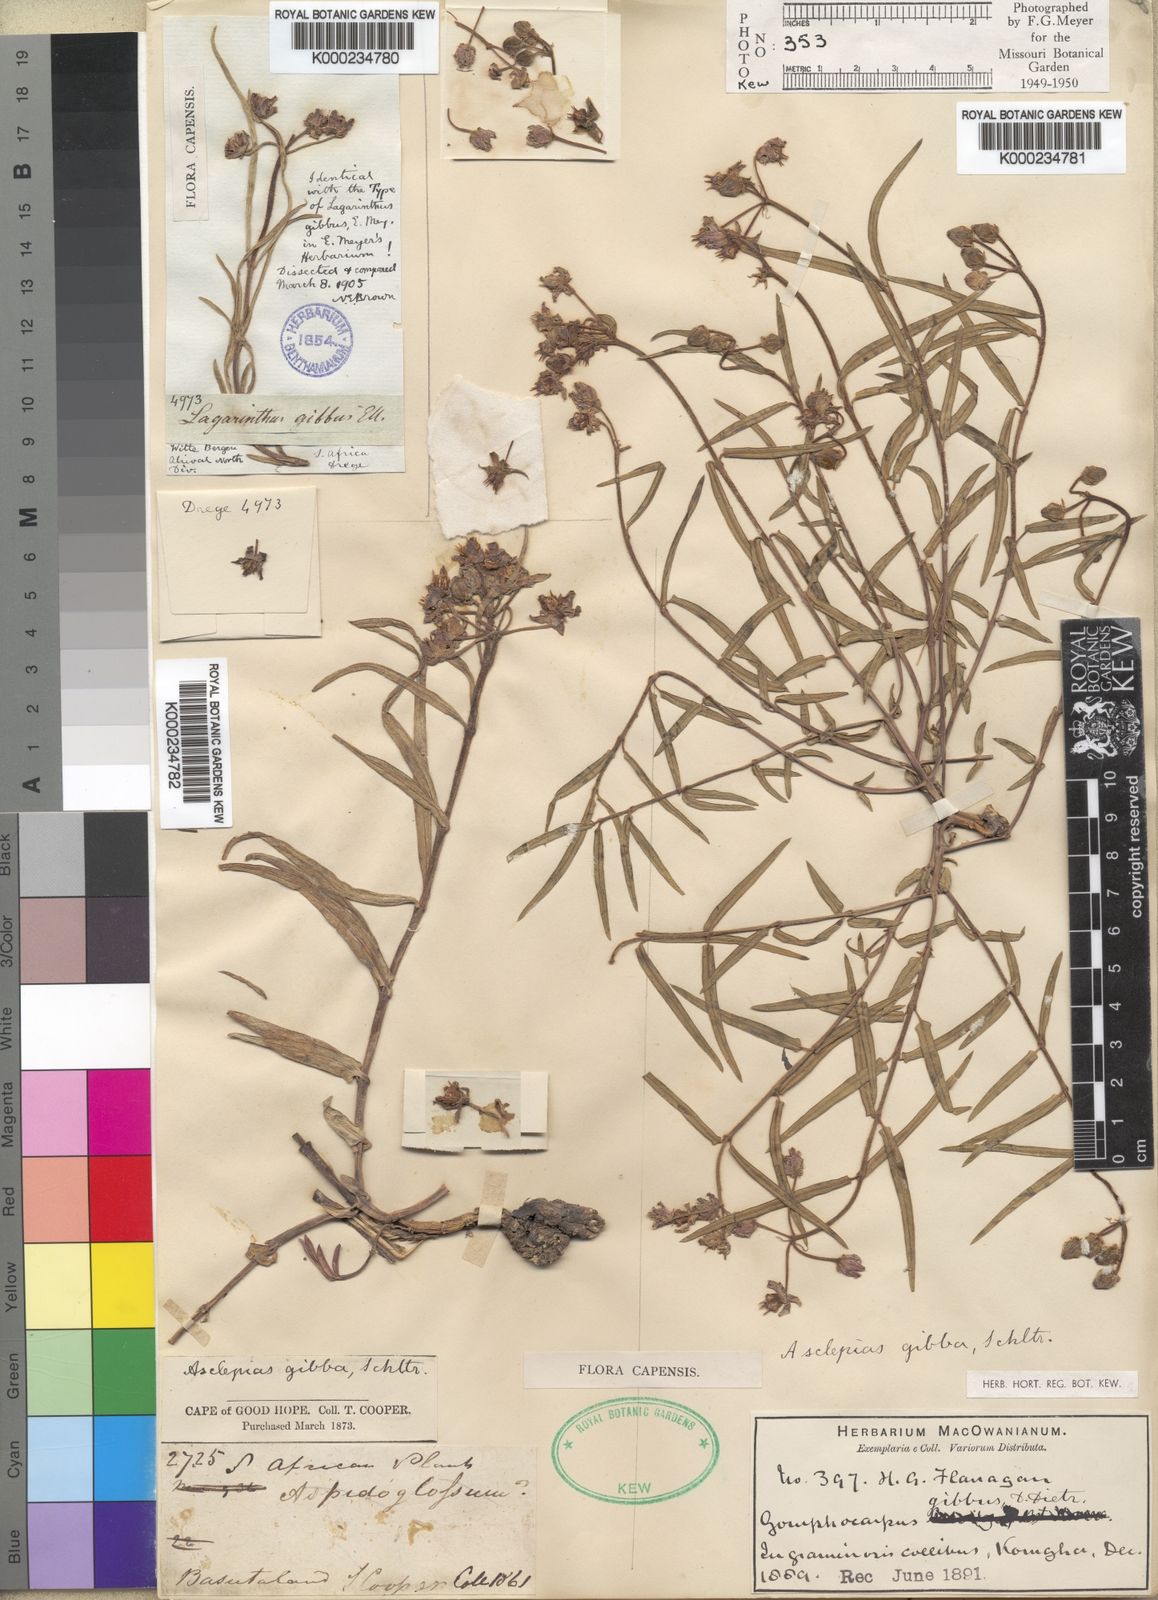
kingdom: Plantae
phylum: Tracheophyta
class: Magnoliopsida
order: Gentianales
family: Apocynaceae
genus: Asclepias
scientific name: Asclepias gibba
